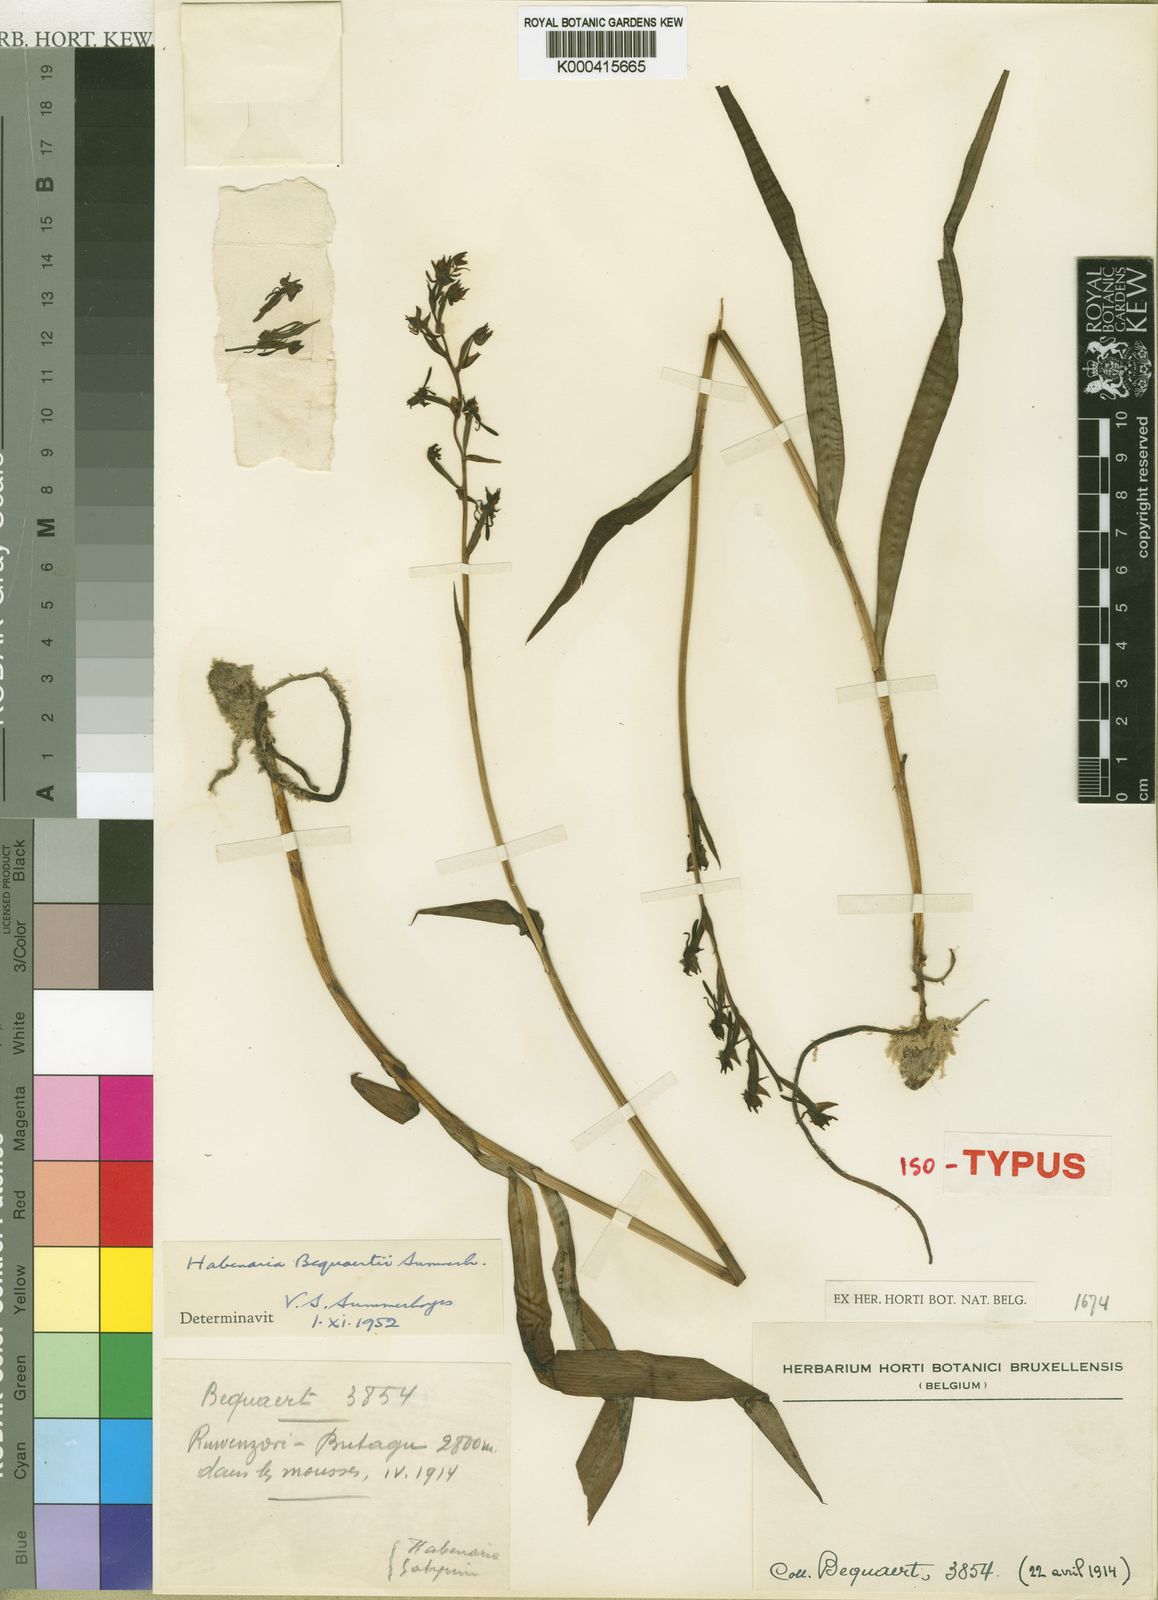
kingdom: Plantae
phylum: Tracheophyta
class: Liliopsida
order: Asparagales
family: Orchidaceae
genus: Habenaria
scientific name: Habenaria bequaertii
